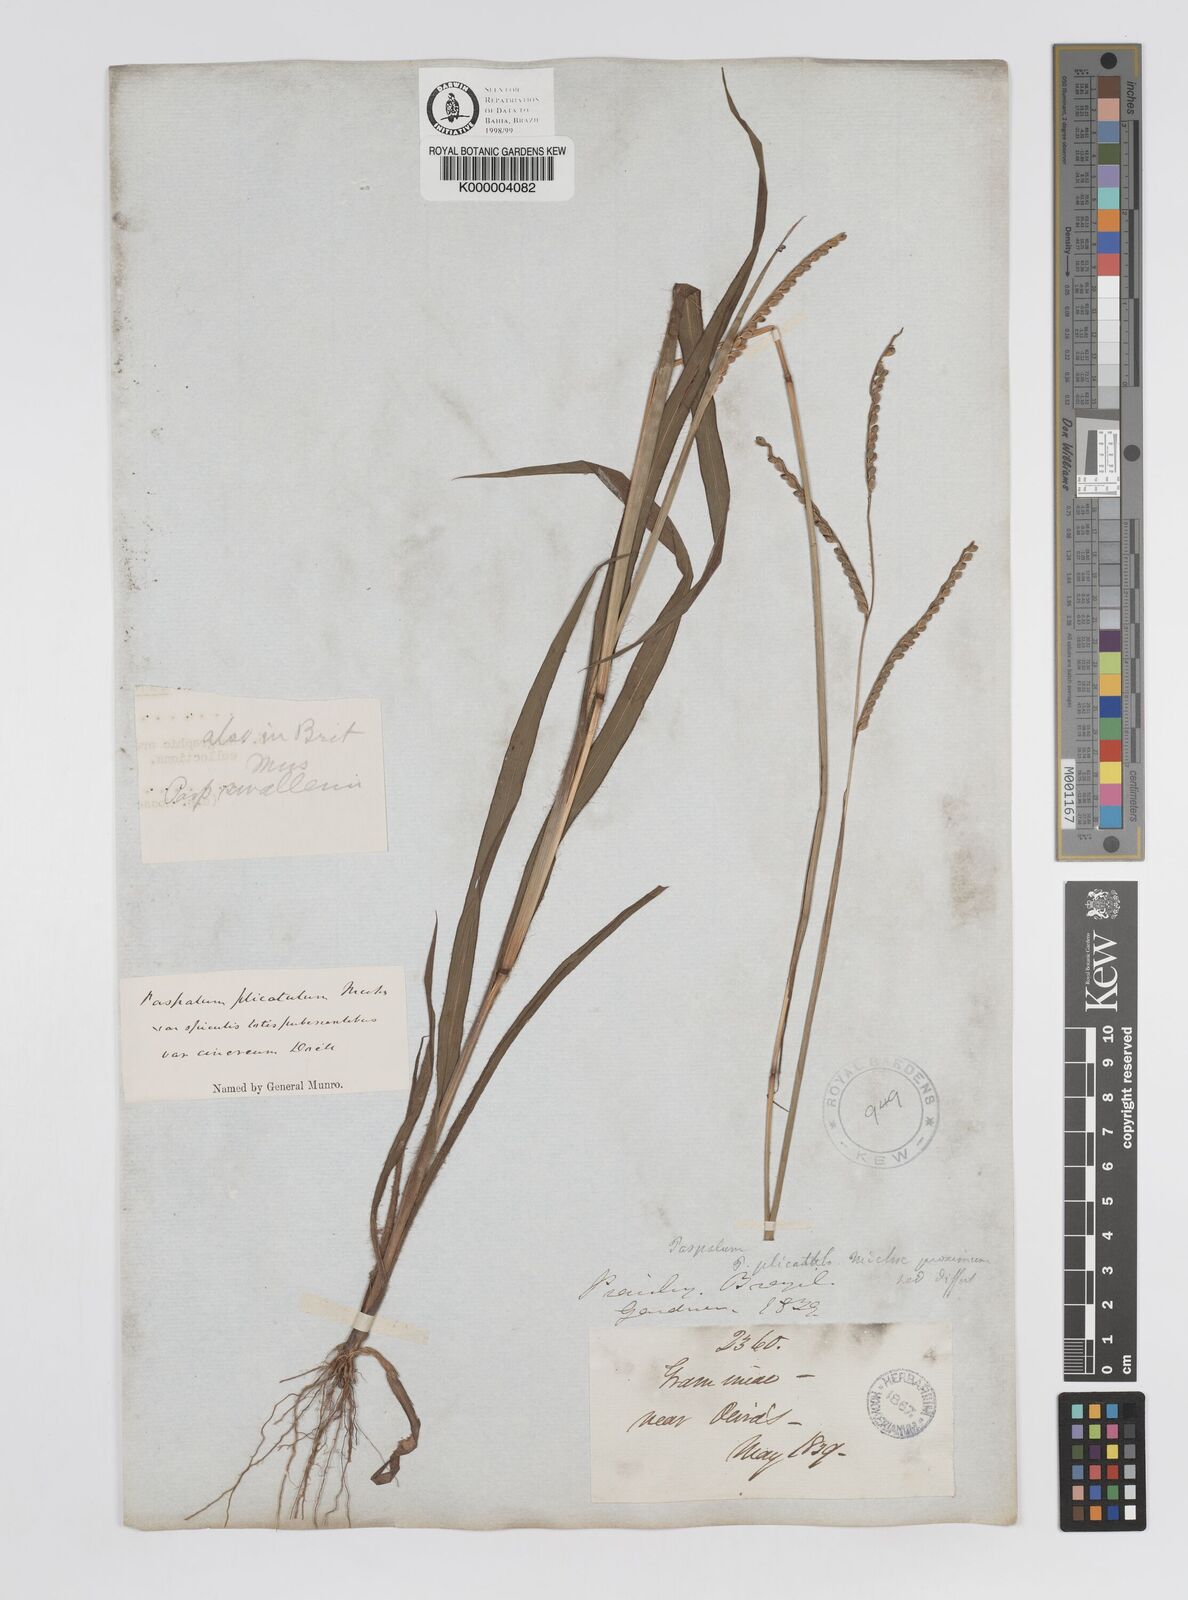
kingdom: Plantae
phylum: Tracheophyta
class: Liliopsida
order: Poales
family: Poaceae
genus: Paspalum
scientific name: Paspalum
